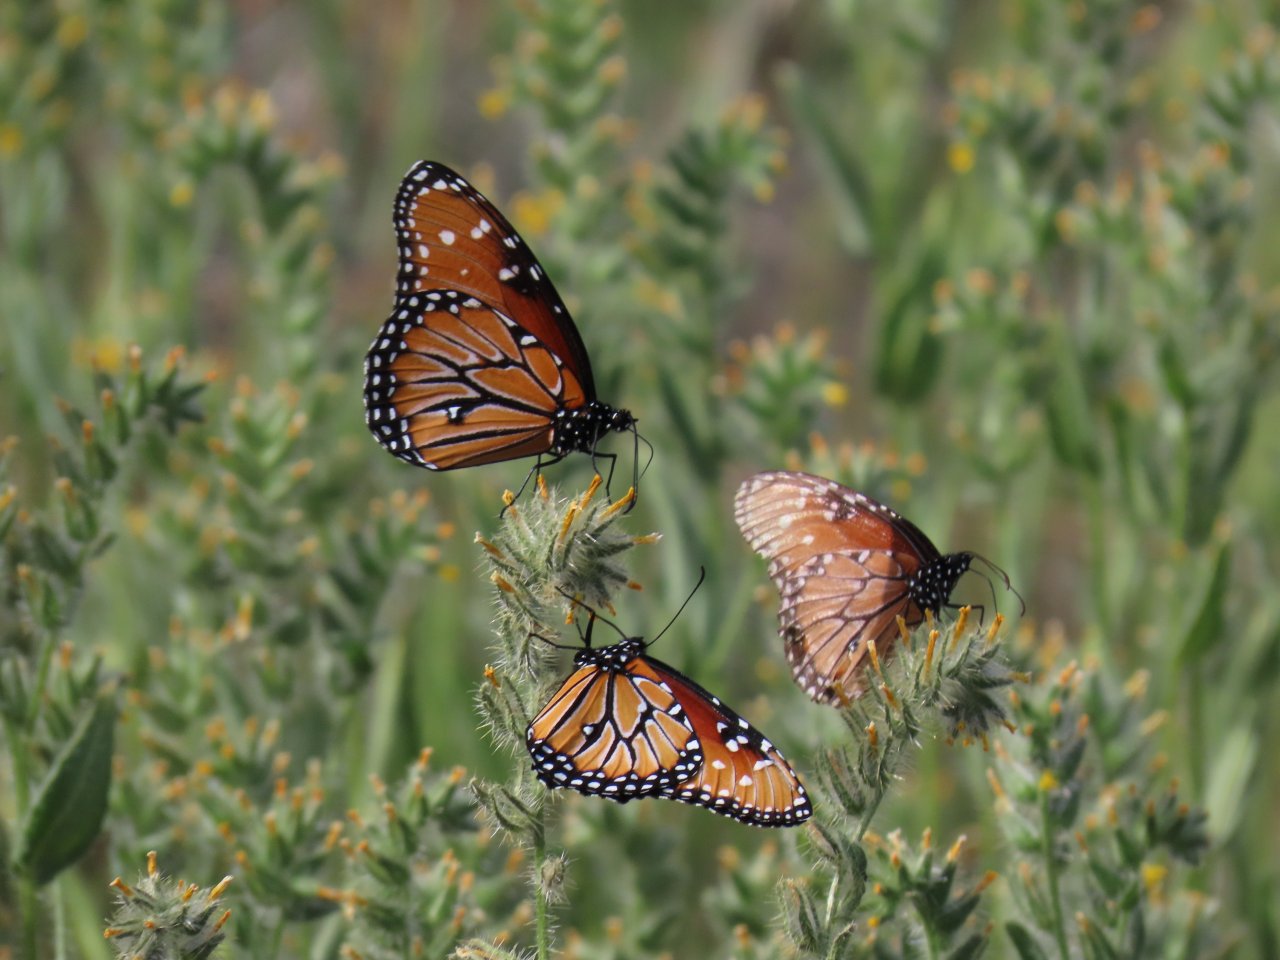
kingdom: Animalia
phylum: Arthropoda
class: Insecta
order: Lepidoptera
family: Nymphalidae
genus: Danaus
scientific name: Danaus gilippus
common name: Queen
